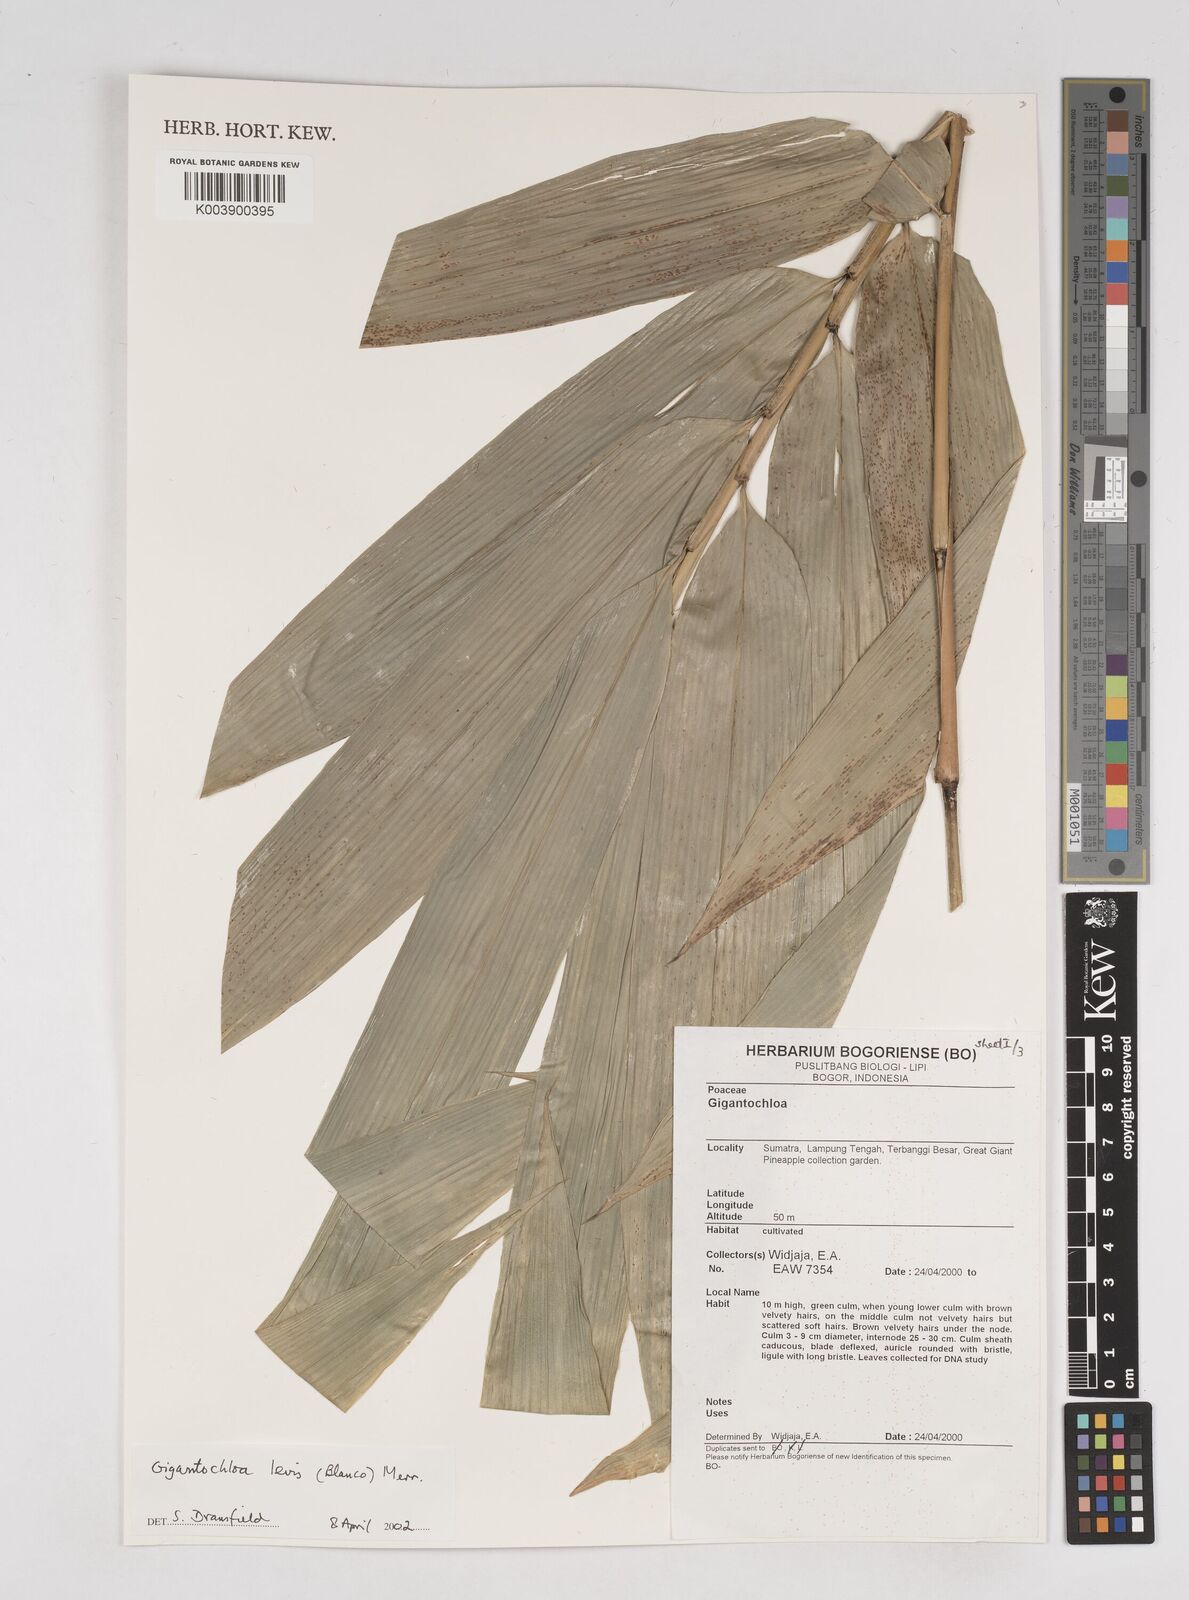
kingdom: Plantae
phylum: Tracheophyta
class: Liliopsida
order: Poales
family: Poaceae
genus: Gigantochloa
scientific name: Gigantochloa levis
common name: Smooth-shoot gigantochloa
